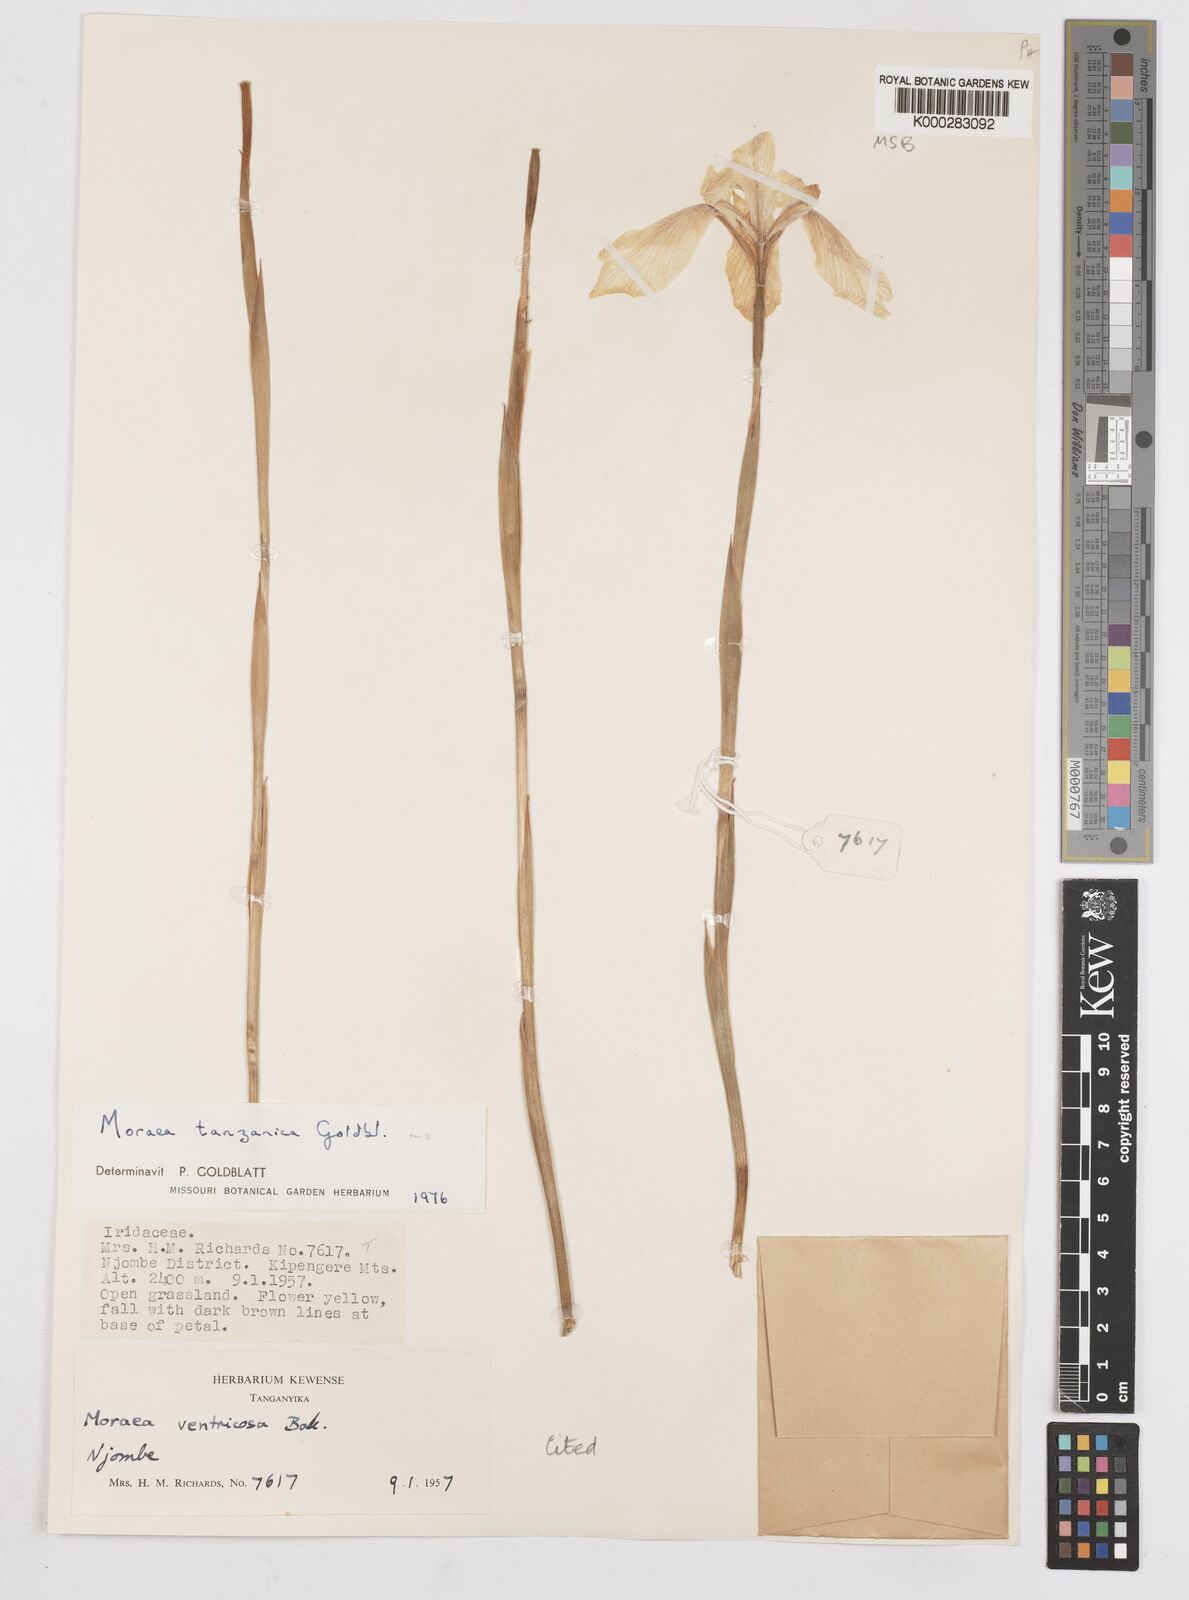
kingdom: Plantae
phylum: Tracheophyta
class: Liliopsida
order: Asparagales
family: Iridaceae
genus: Moraea
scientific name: Moraea tanzanica
